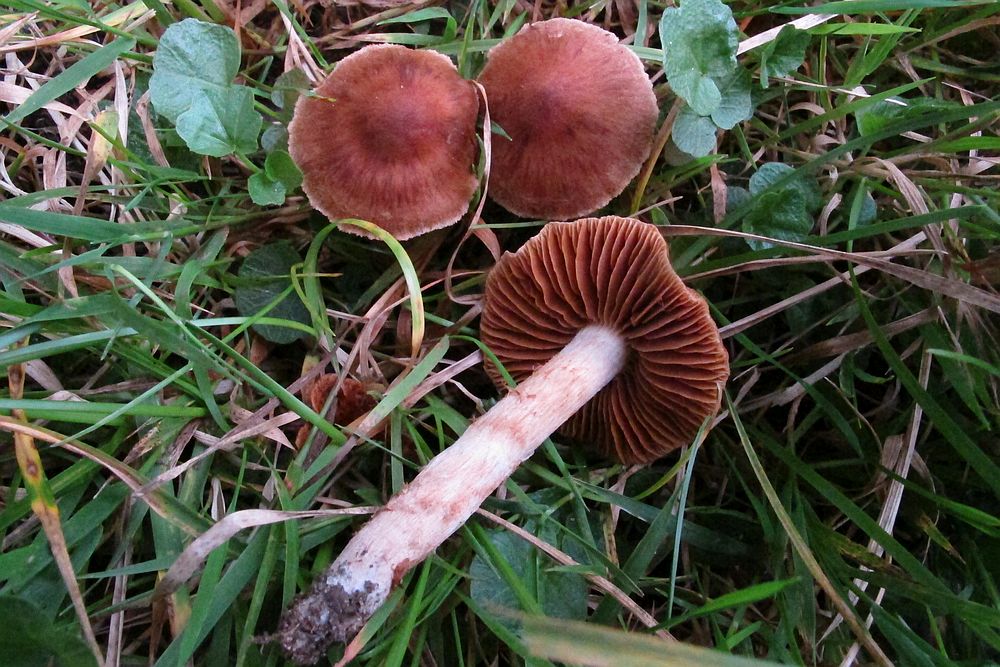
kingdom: Fungi
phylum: Basidiomycota
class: Agaricomycetes
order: Agaricales
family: Cortinariaceae
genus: Cortinarius
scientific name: Cortinarius
